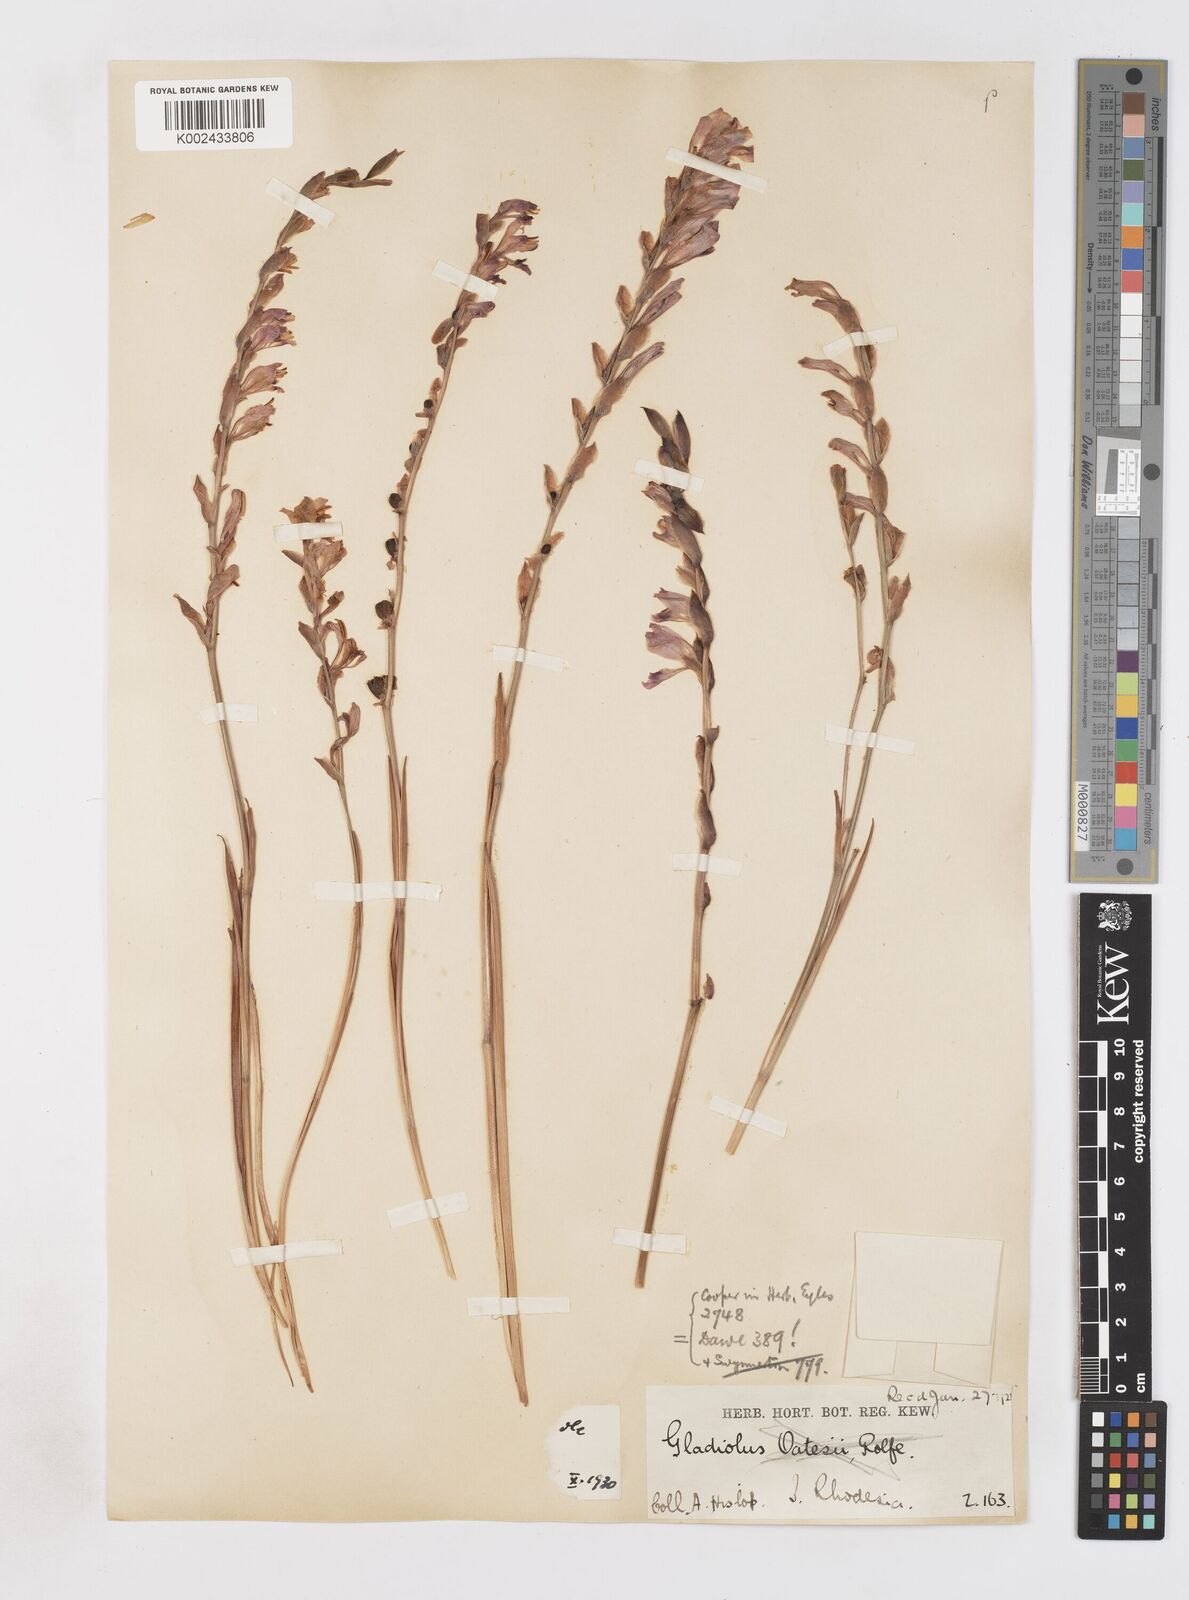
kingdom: Plantae
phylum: Tracheophyta
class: Liliopsida
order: Asparagales
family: Iridaceae
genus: Gladiolus
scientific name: Gladiolus crassifolius
